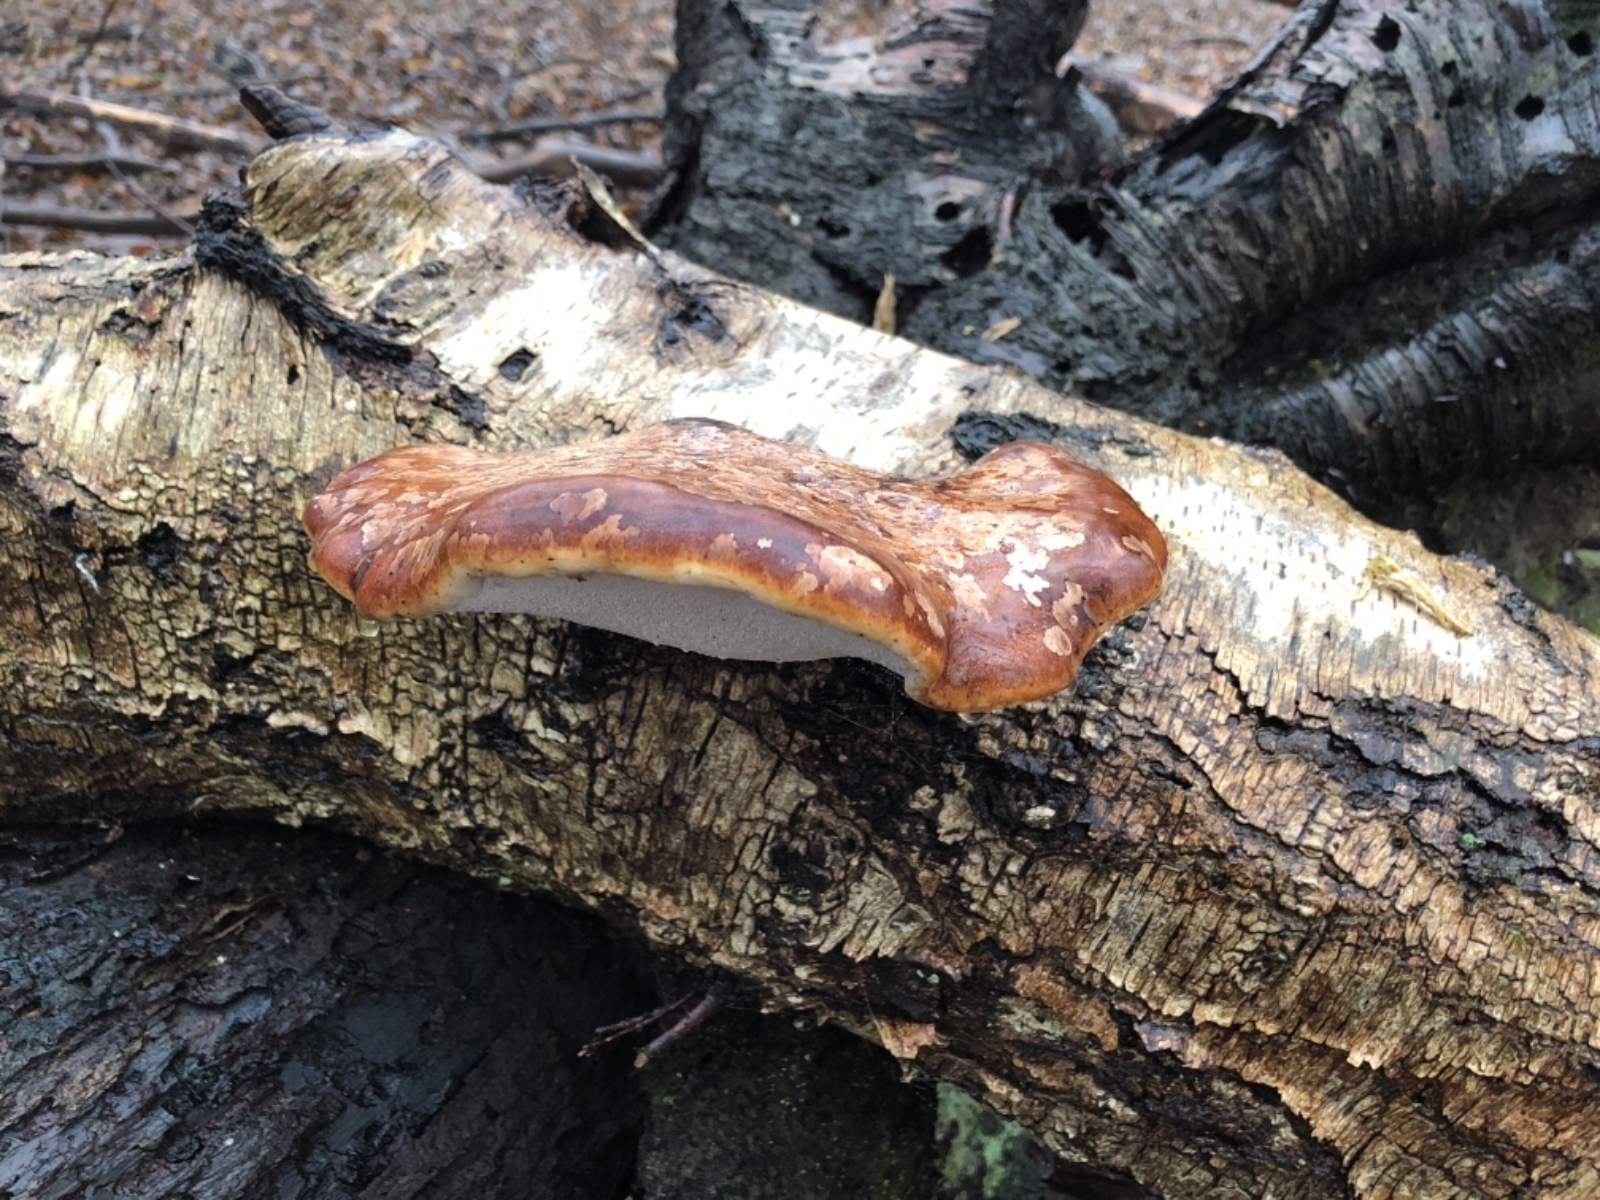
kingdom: Fungi
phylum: Basidiomycota
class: Agaricomycetes
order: Polyporales
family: Fomitopsidaceae
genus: Fomitopsis
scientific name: Fomitopsis betulina
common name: birkeporesvamp
